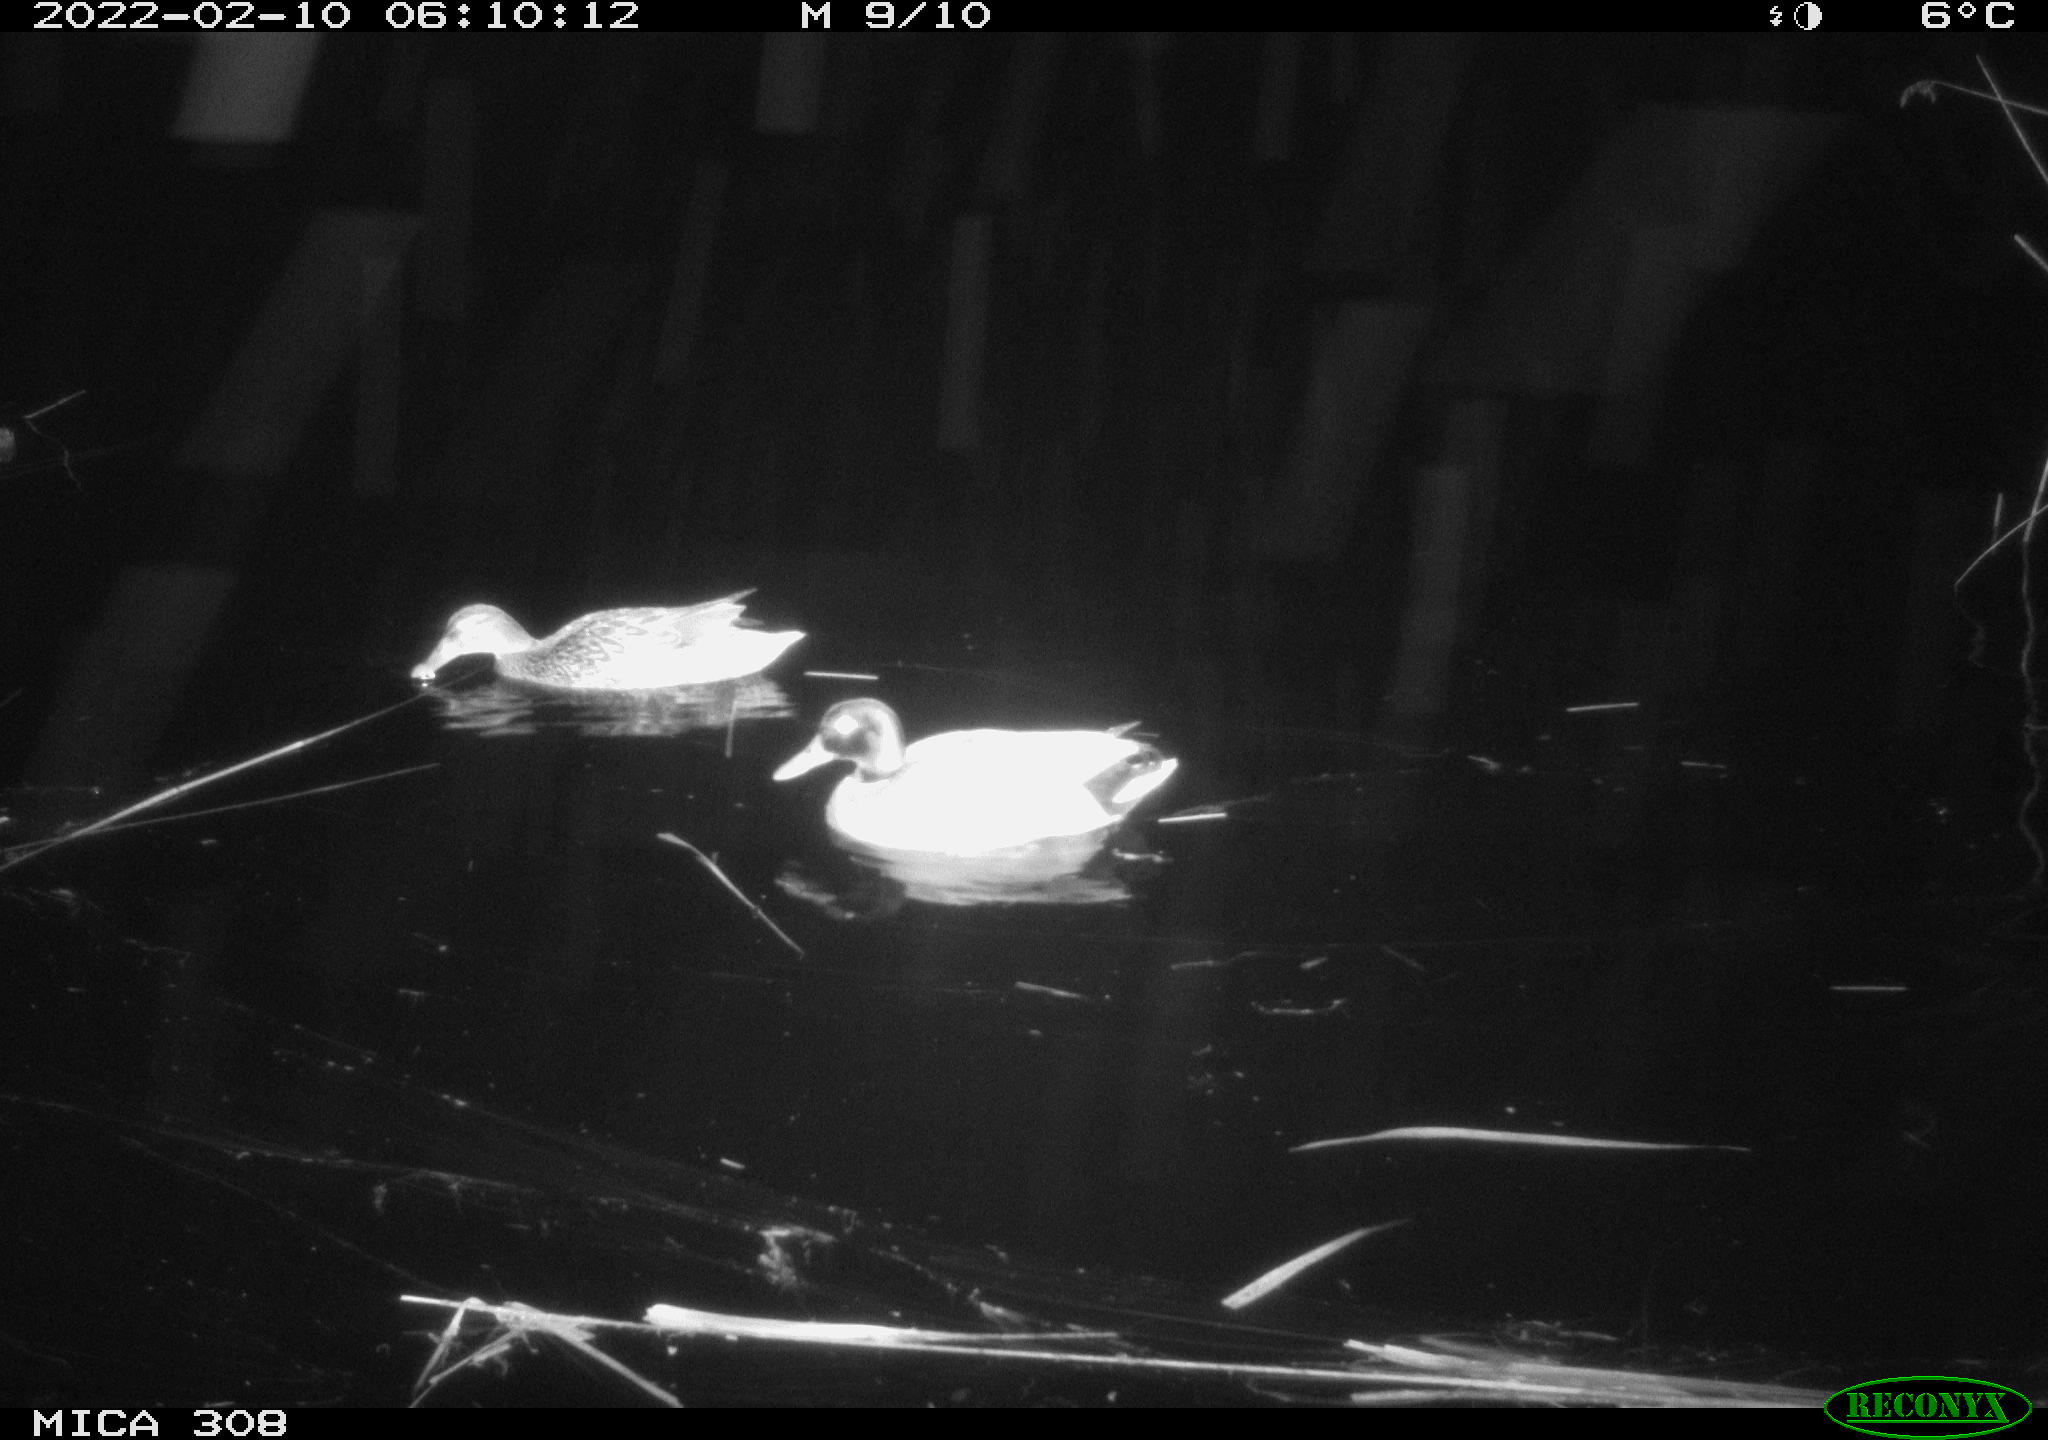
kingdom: Animalia
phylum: Chordata
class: Aves
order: Gruiformes
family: Rallidae
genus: Gallinula
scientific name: Gallinula chloropus
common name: Common moorhen
